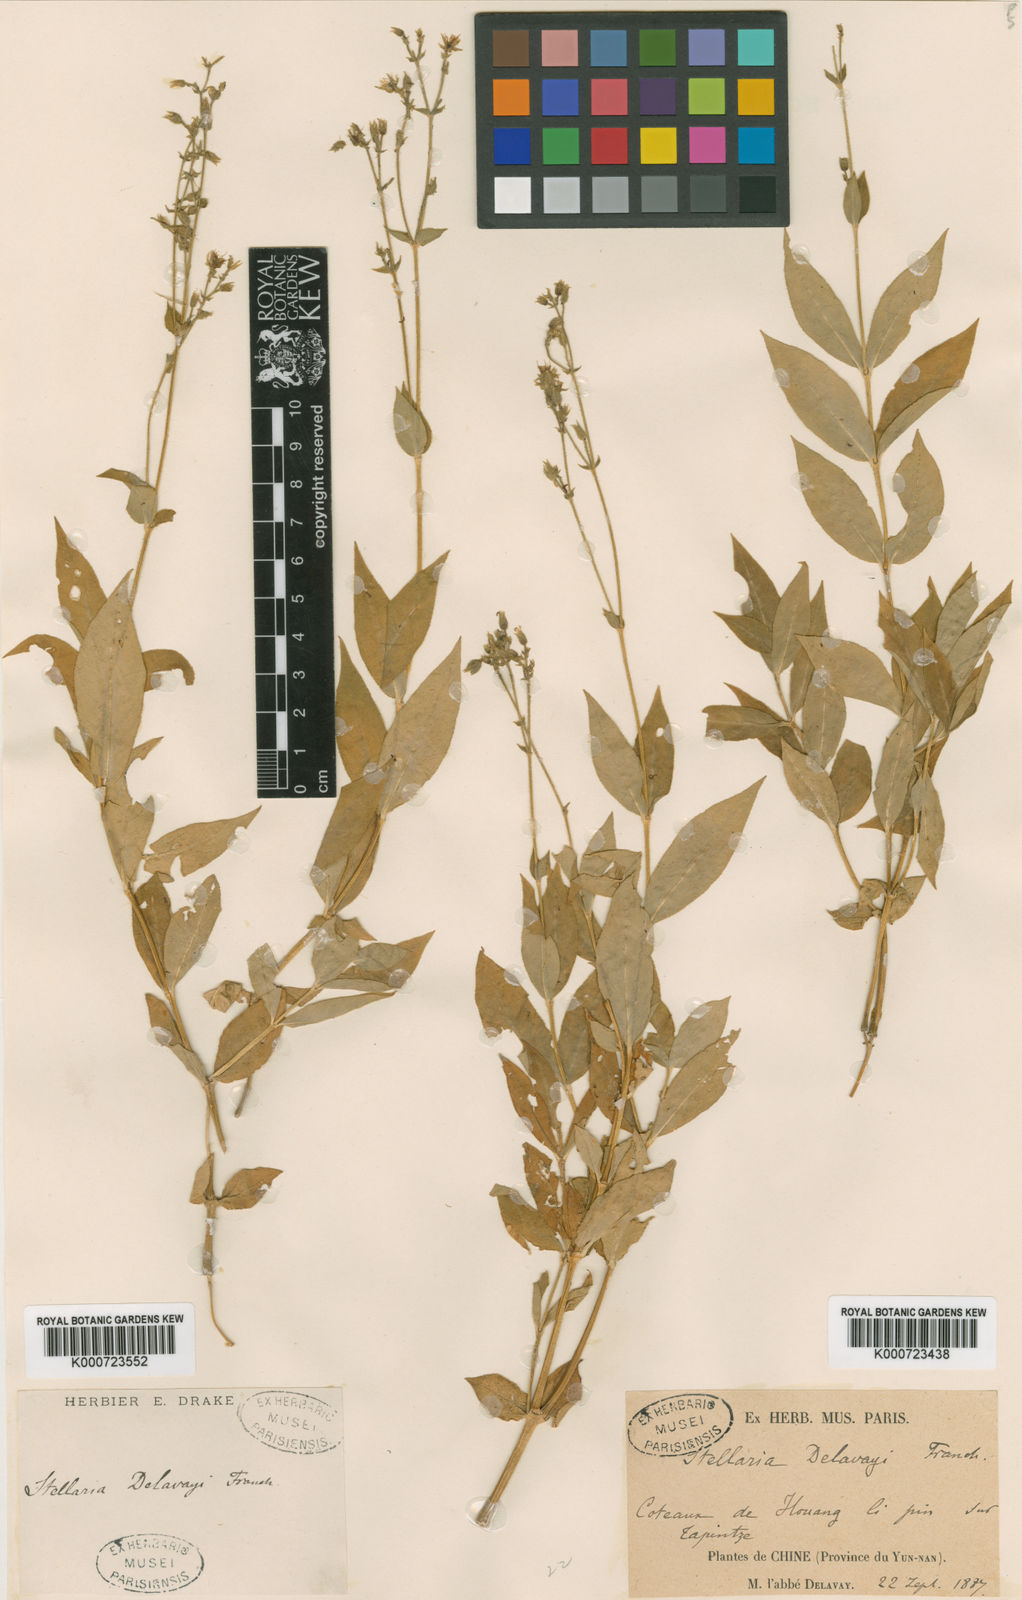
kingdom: Plantae
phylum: Tracheophyta
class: Magnoliopsida
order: Caryophyllales
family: Caryophyllaceae
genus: Stellaria
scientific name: Stellaria delavayi
